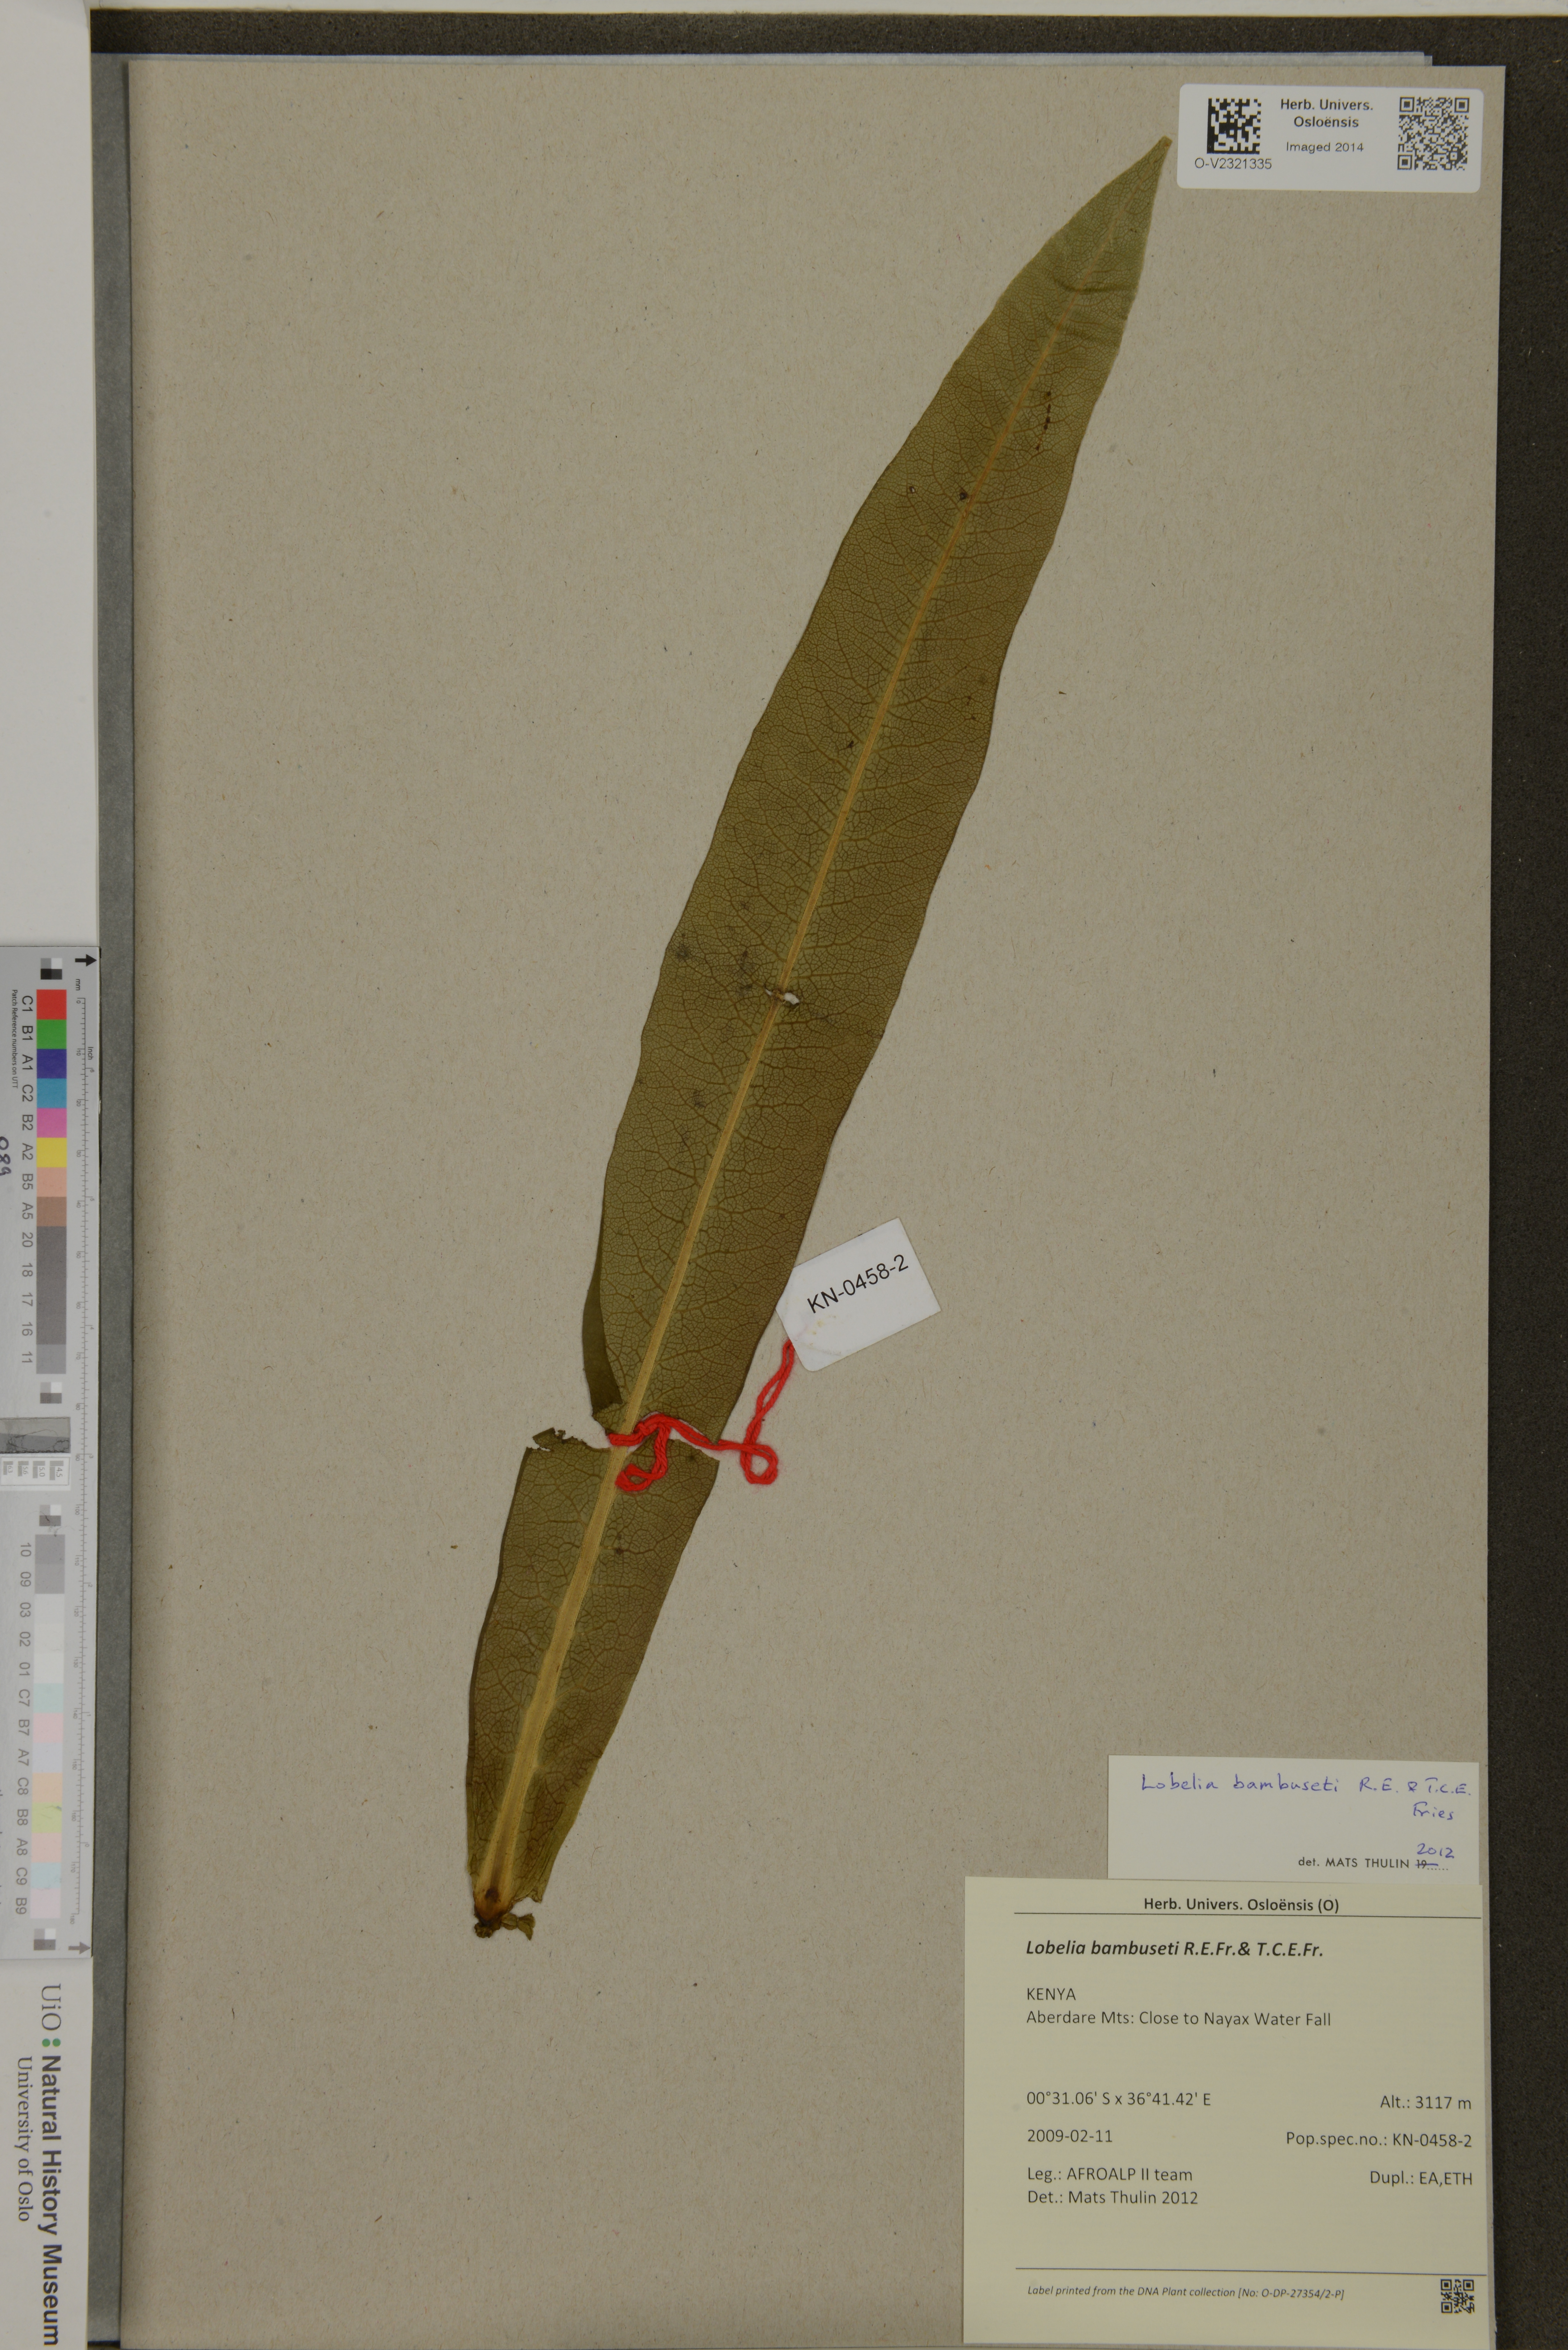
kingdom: Plantae
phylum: Tracheophyta
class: Magnoliopsida
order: Asterales
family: Campanulaceae
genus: Lobelia
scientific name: Lobelia bambuseti
